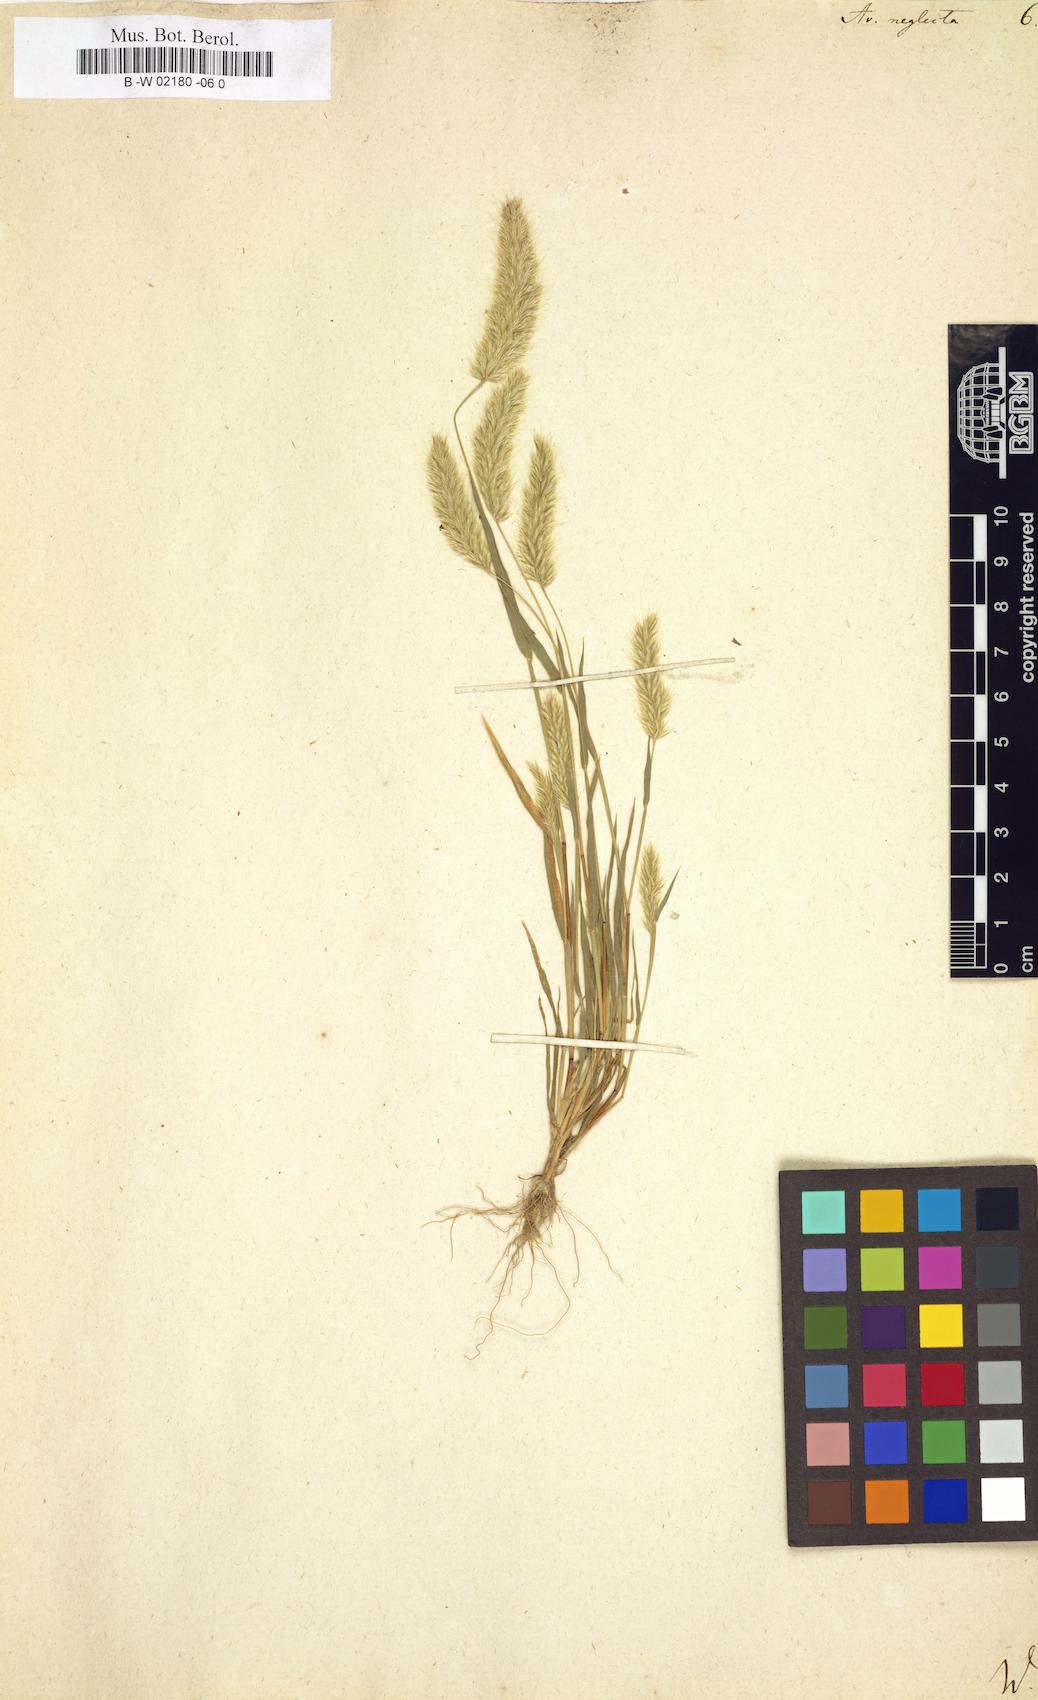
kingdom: Plantae
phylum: Tracheophyta
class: Liliopsida
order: Poales
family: Poaceae
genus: Trisetaria
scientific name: Trisetaria panicea
